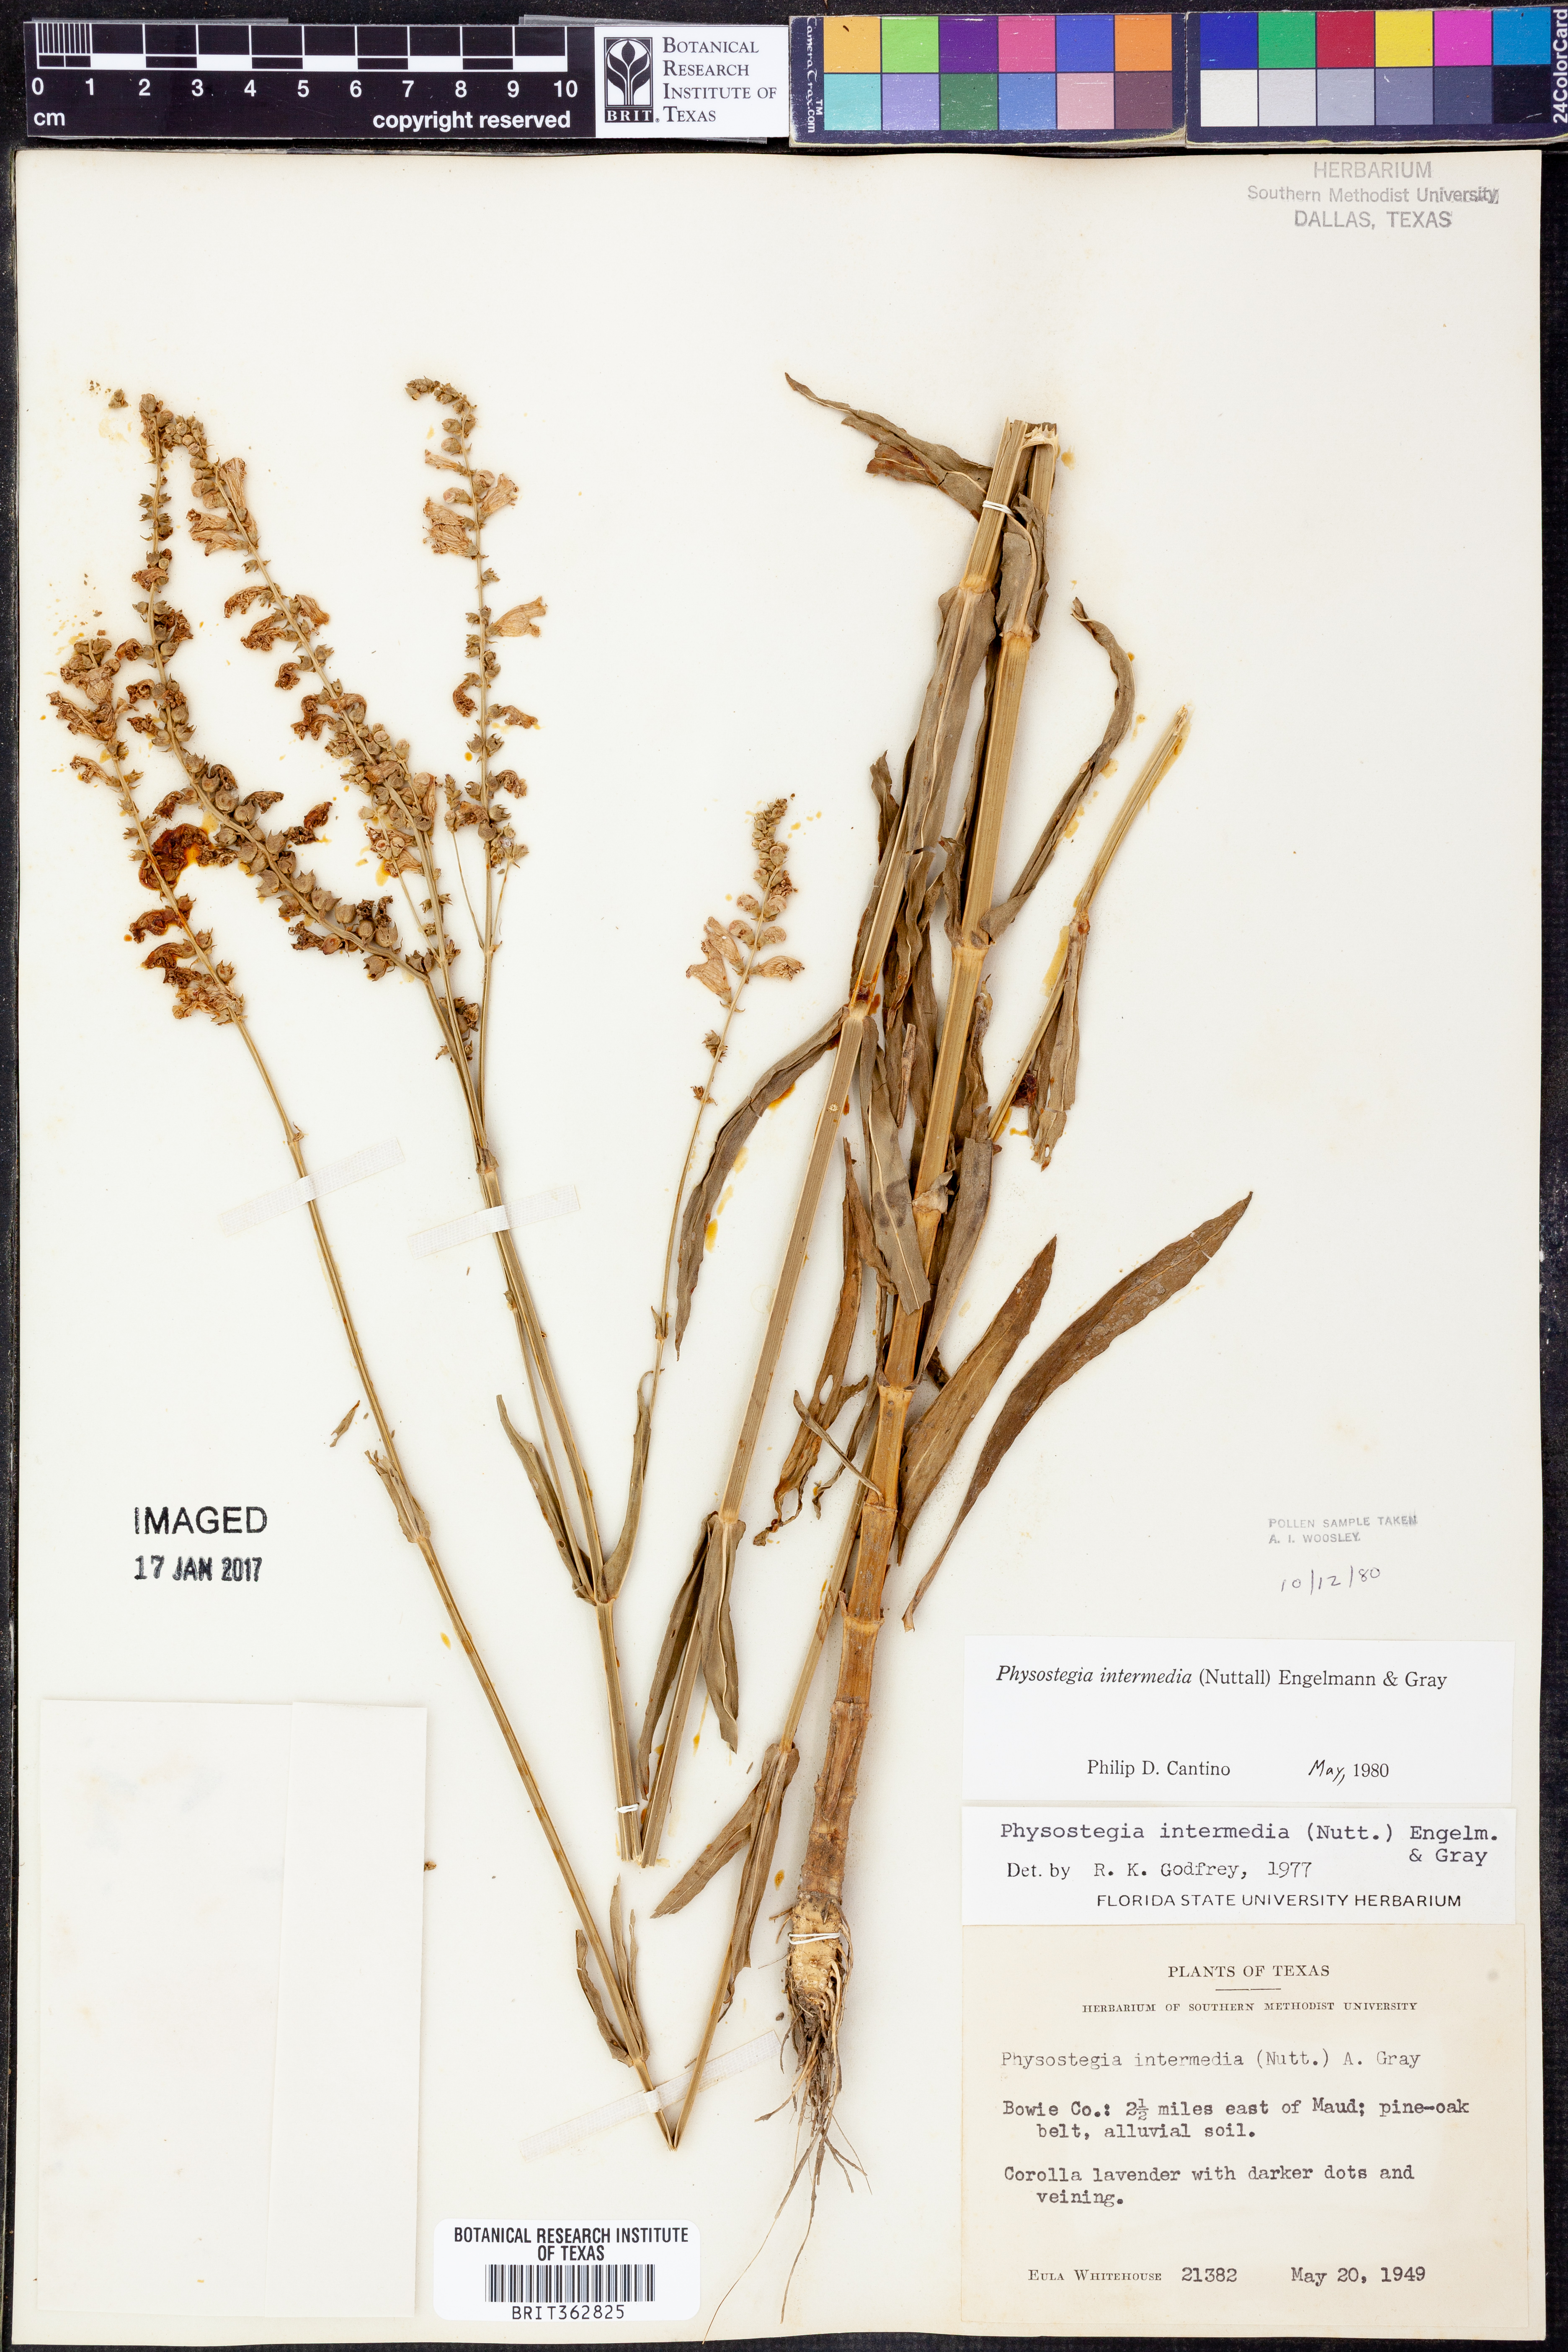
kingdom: Plantae
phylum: Tracheophyta
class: Magnoliopsida
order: Lamiales
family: Lamiaceae
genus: Physostegia
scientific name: Physostegia intermedia
